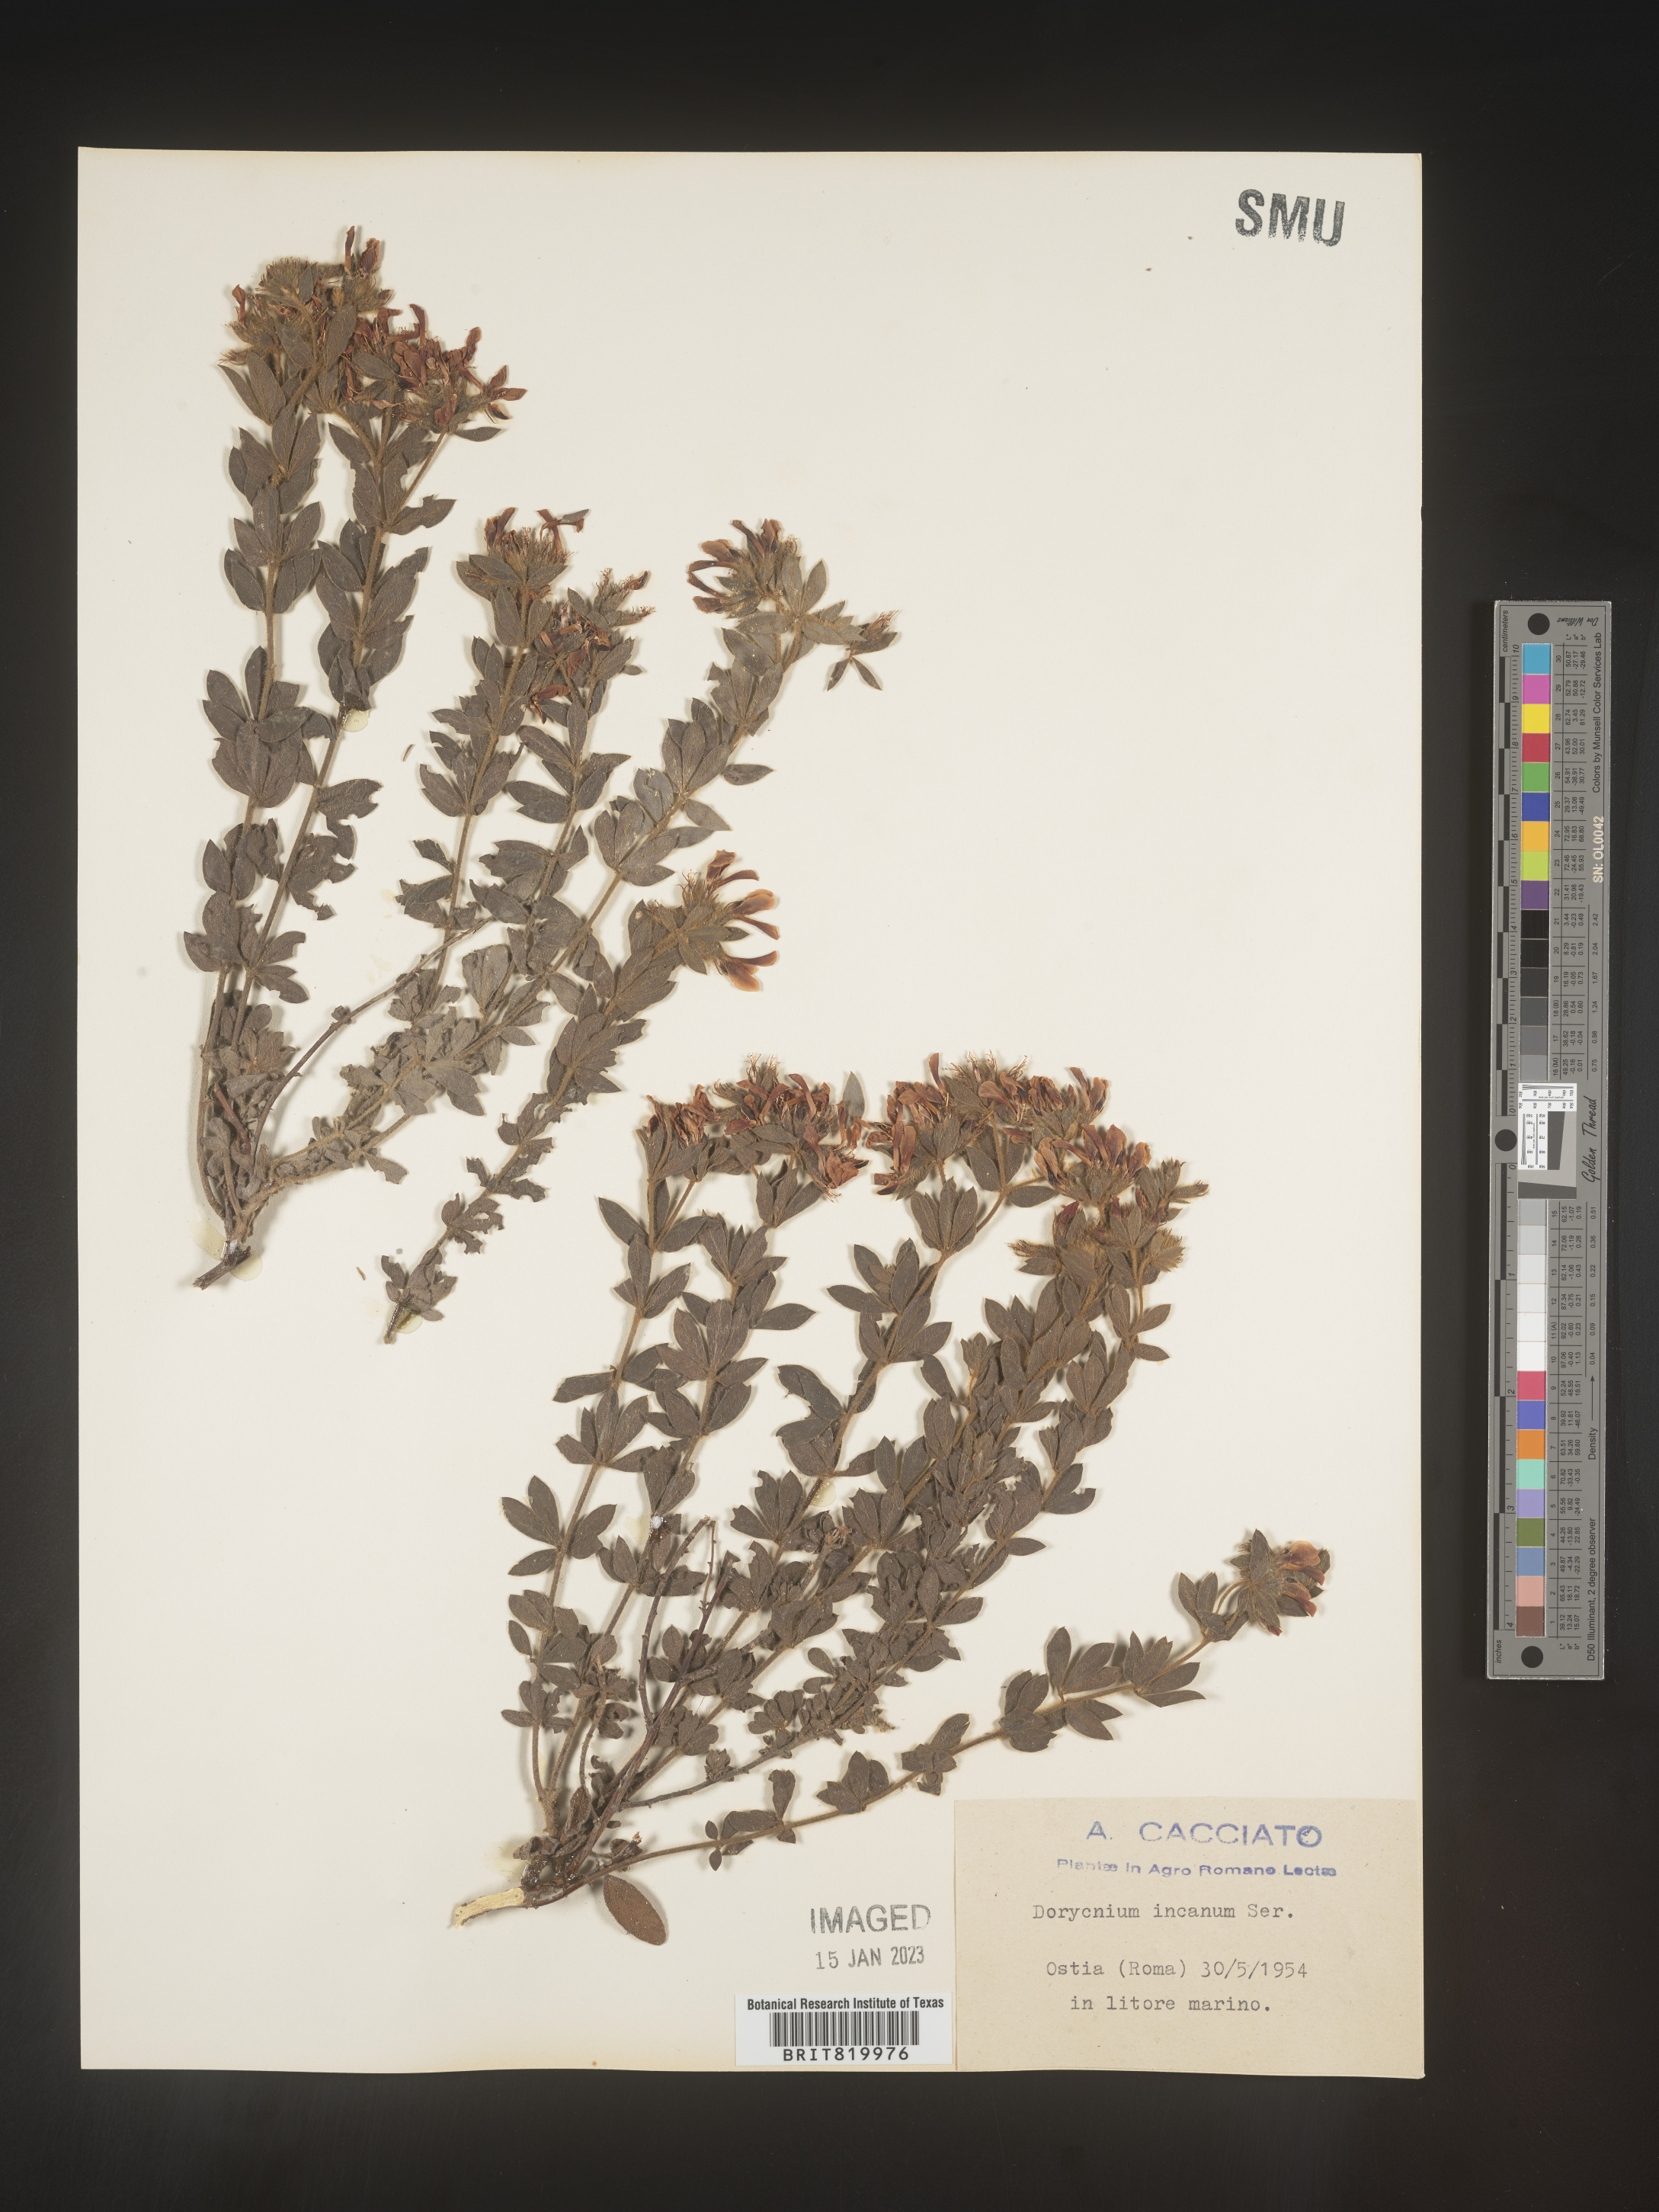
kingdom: Plantae
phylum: Tracheophyta
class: Magnoliopsida
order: Fabales
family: Fabaceae
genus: Lotus
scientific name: Lotus
